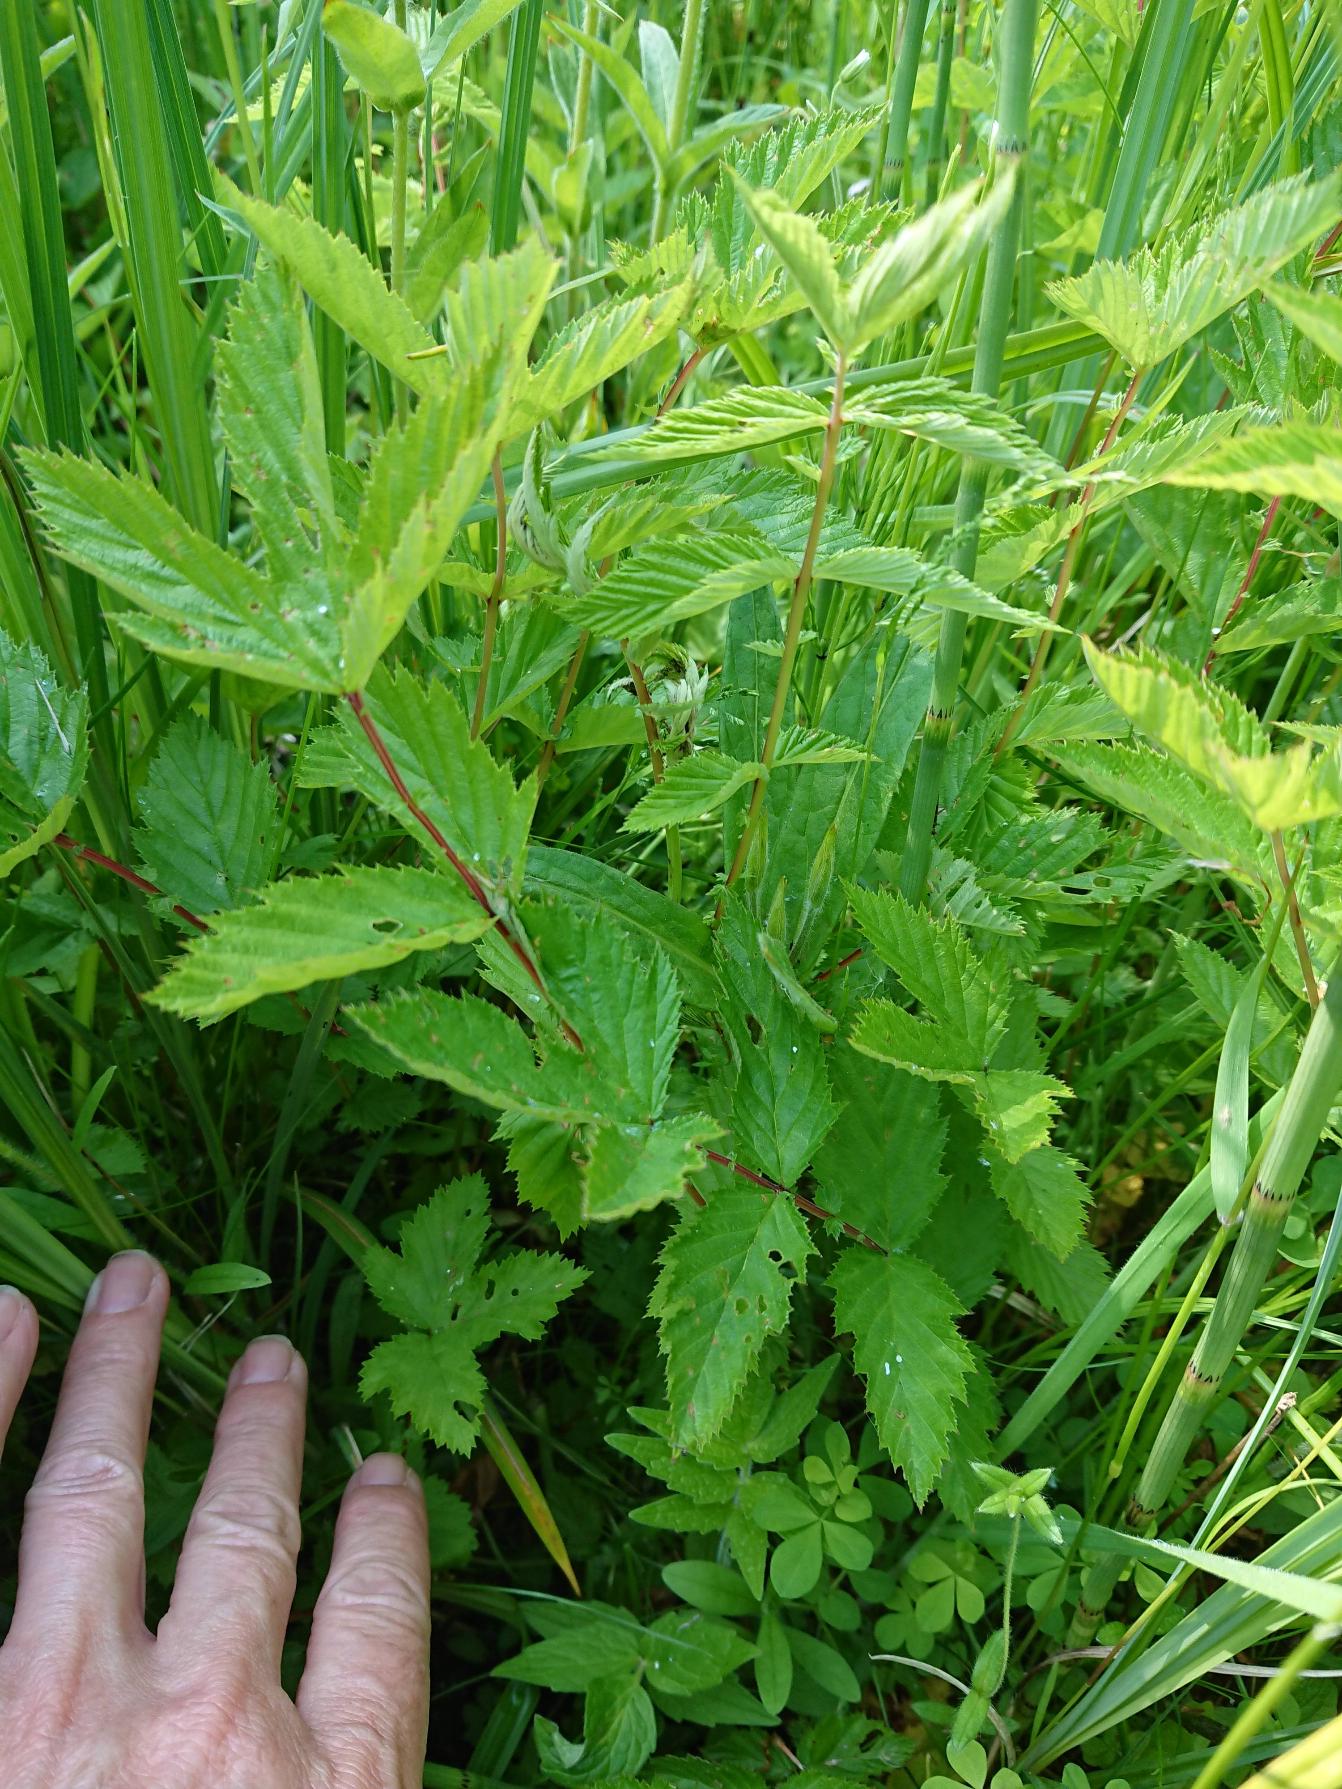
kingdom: Plantae
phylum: Tracheophyta
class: Magnoliopsida
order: Rosales
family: Rosaceae
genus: Filipendula
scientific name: Filipendula ulmaria
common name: Almindelig mjødurt
